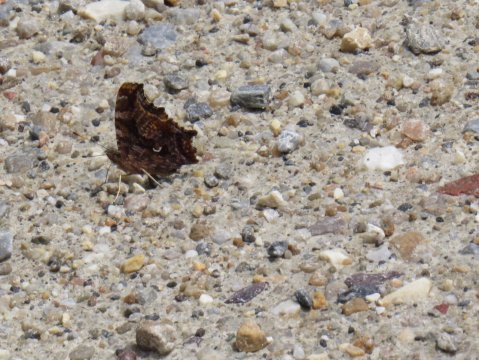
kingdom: Animalia
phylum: Arthropoda
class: Insecta
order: Lepidoptera
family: Nymphalidae
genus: Polygonia
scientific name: Polygonia comma
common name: Eastern Comma
